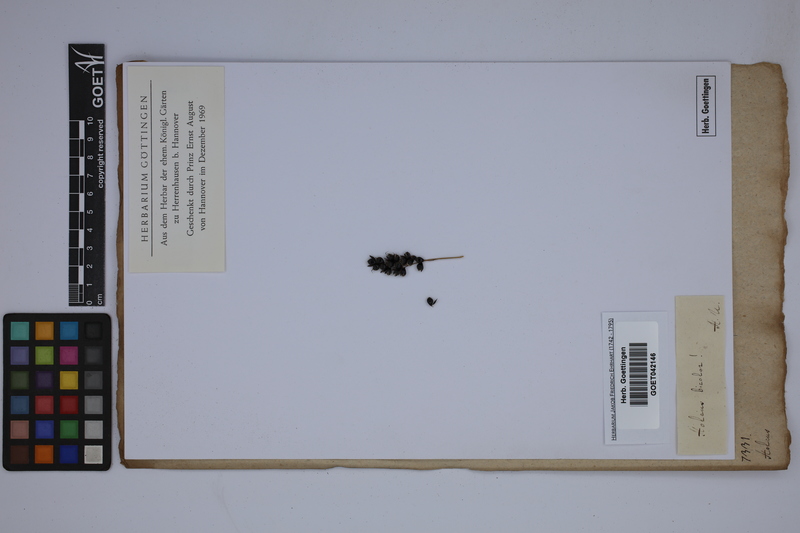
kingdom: Plantae
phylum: Tracheophyta
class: Liliopsida
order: Poales
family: Poaceae
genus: Sorghum
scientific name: Sorghum bicolor
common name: Sorghum
